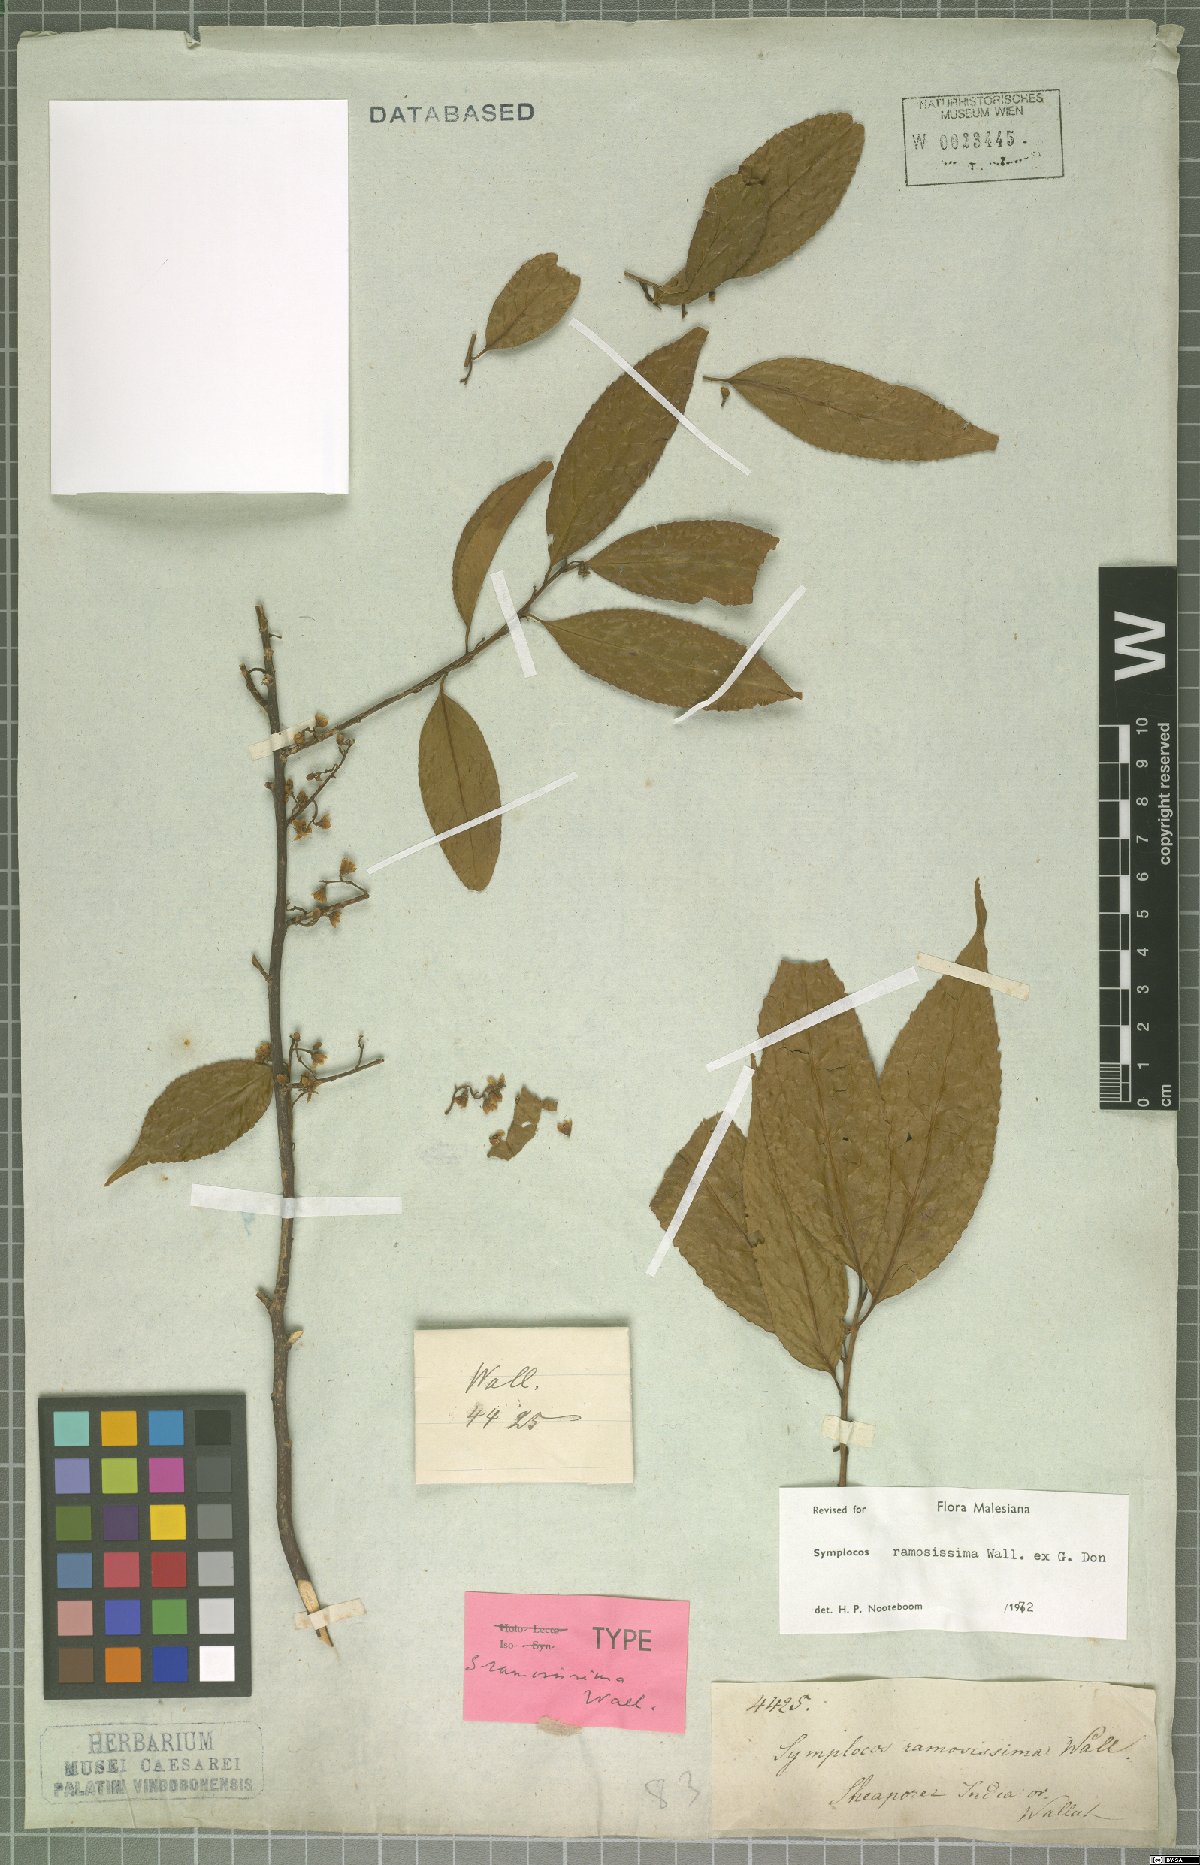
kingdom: Plantae
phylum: Tracheophyta
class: Magnoliopsida
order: Ericales
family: Symplocaceae
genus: Symplocos
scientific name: Symplocos ramosissima
